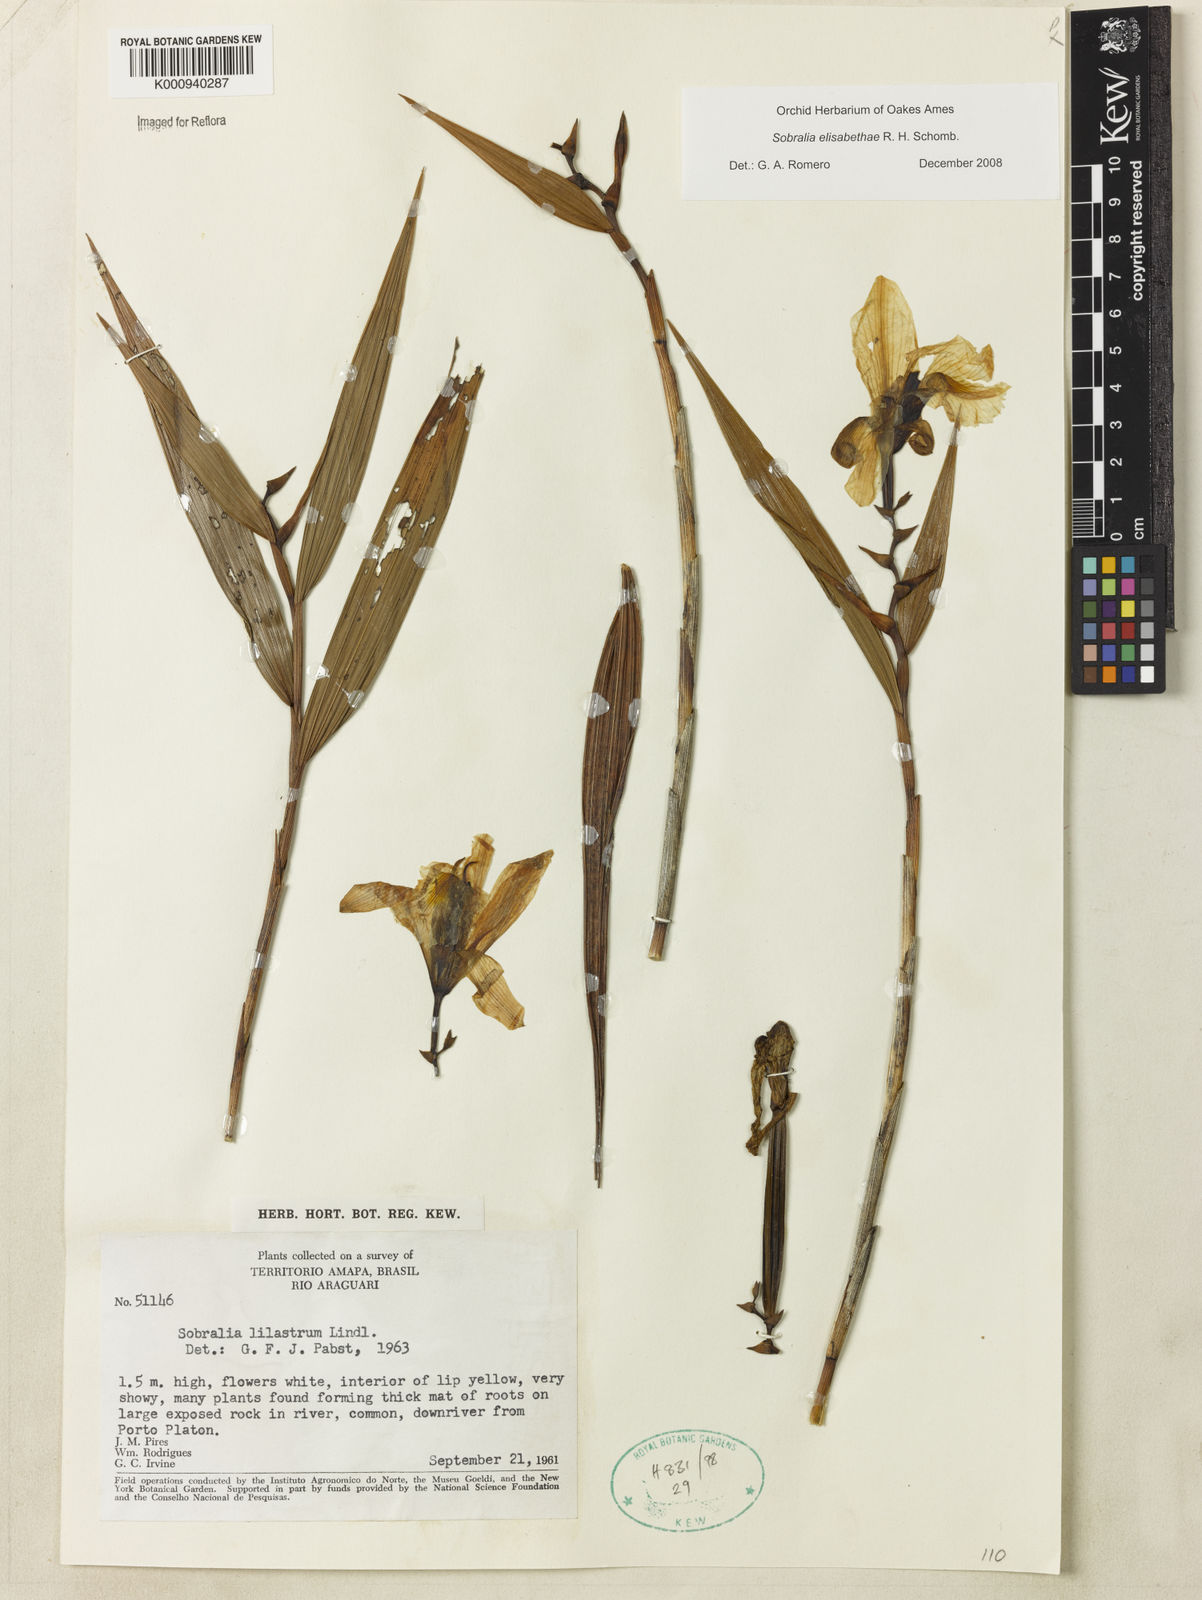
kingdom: Plantae
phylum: Tracheophyta
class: Liliopsida
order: Asparagales
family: Orchidaceae
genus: Sobralia
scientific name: Sobralia elisabethae
